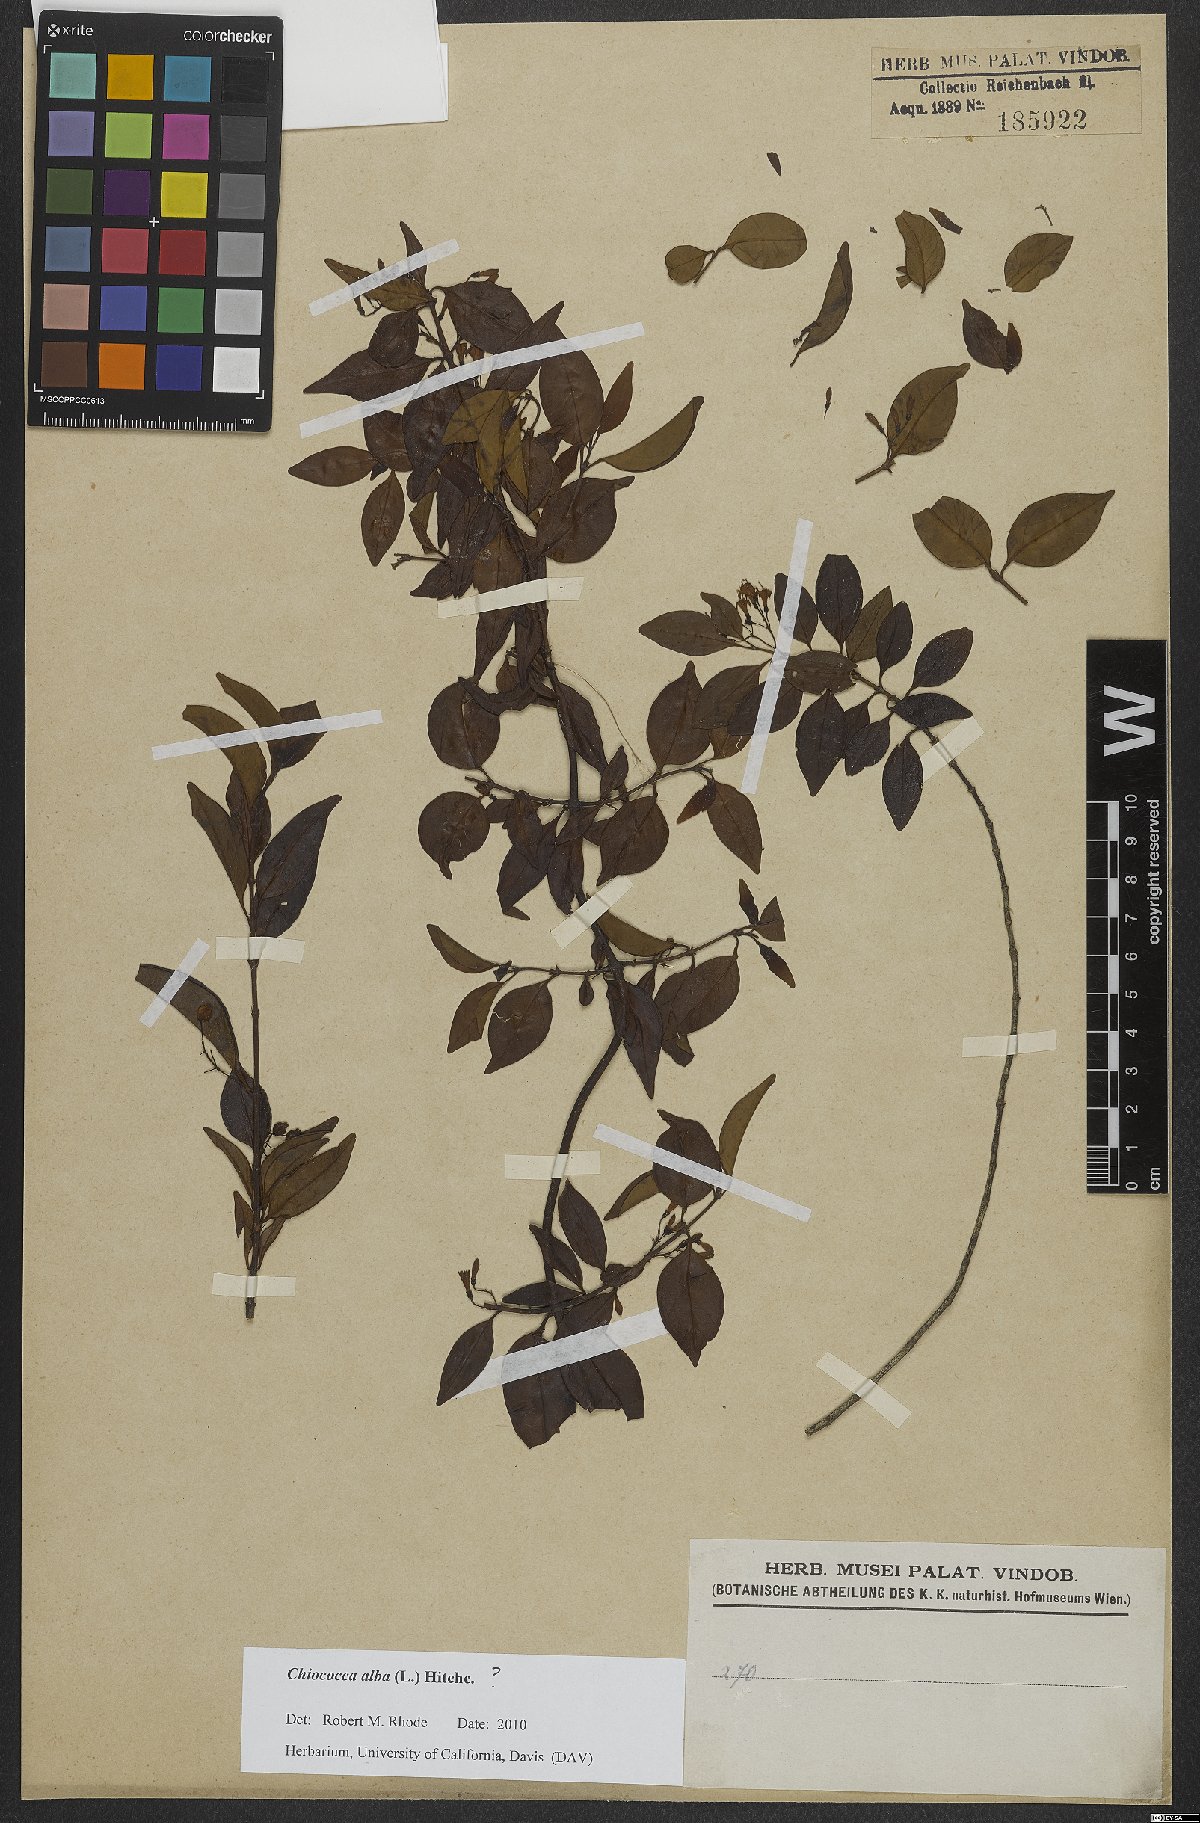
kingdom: Plantae
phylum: Tracheophyta
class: Magnoliopsida
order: Gentianales
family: Rubiaceae
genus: Chiococca
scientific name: Chiococca alba
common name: Snowberry
